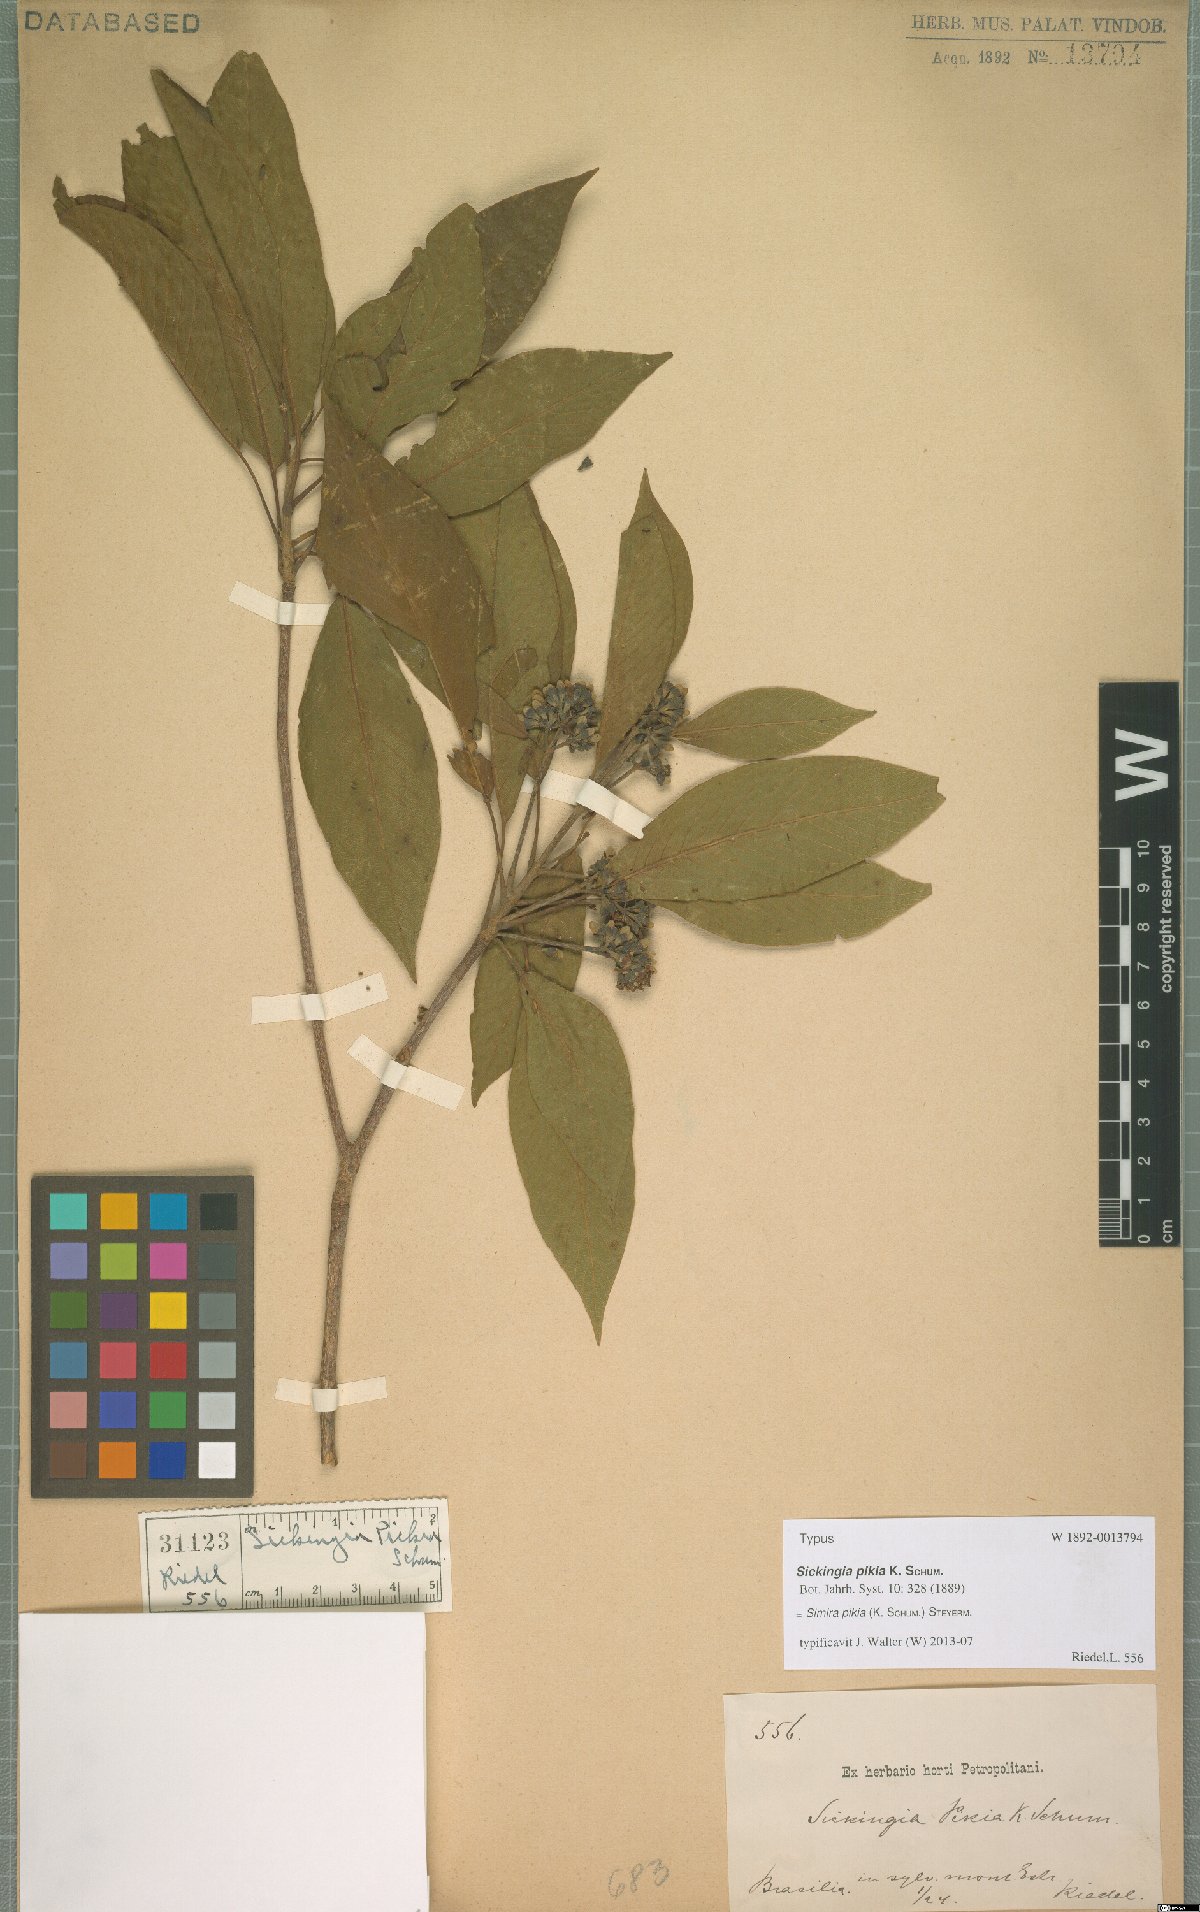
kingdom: Plantae
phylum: Tracheophyta
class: Magnoliopsida
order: Gentianales
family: Rubiaceae
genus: Simira
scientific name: Simira pikia
